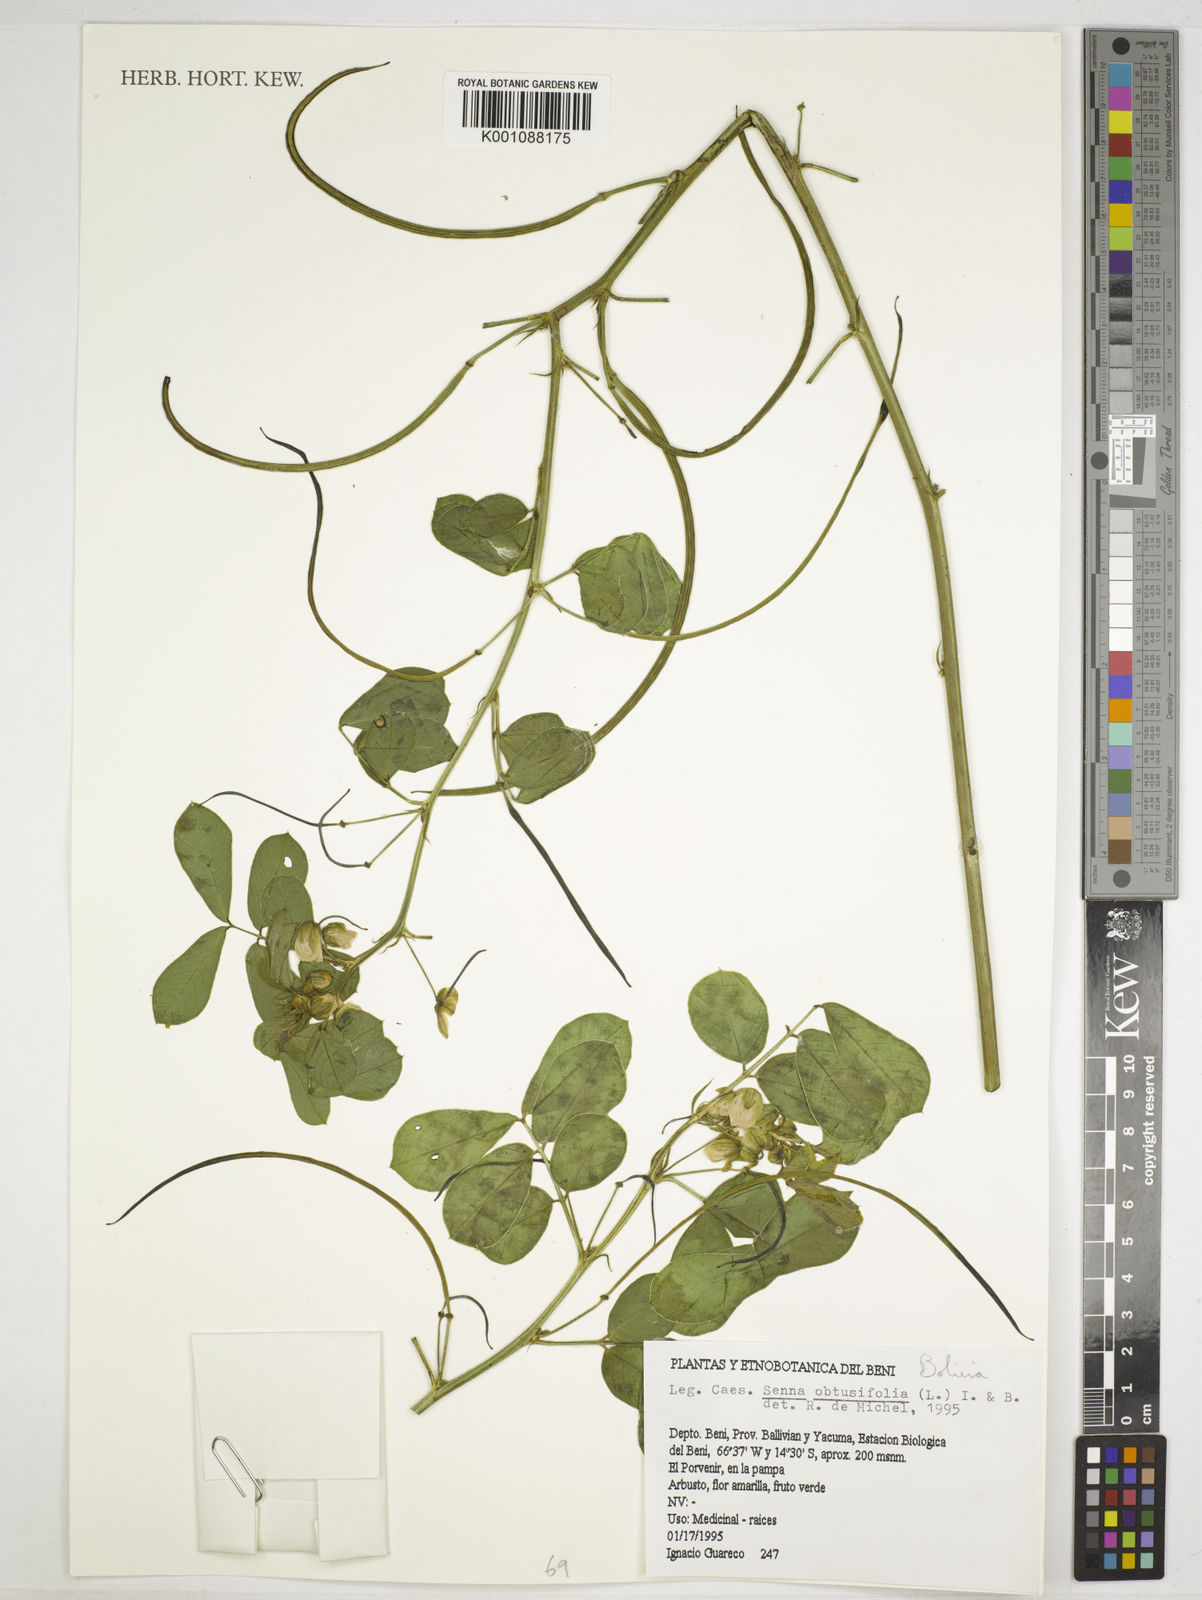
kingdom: Plantae
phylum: Tracheophyta
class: Magnoliopsida
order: Fabales
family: Fabaceae
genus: Senna
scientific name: Senna obtusifolia
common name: Java-bean
